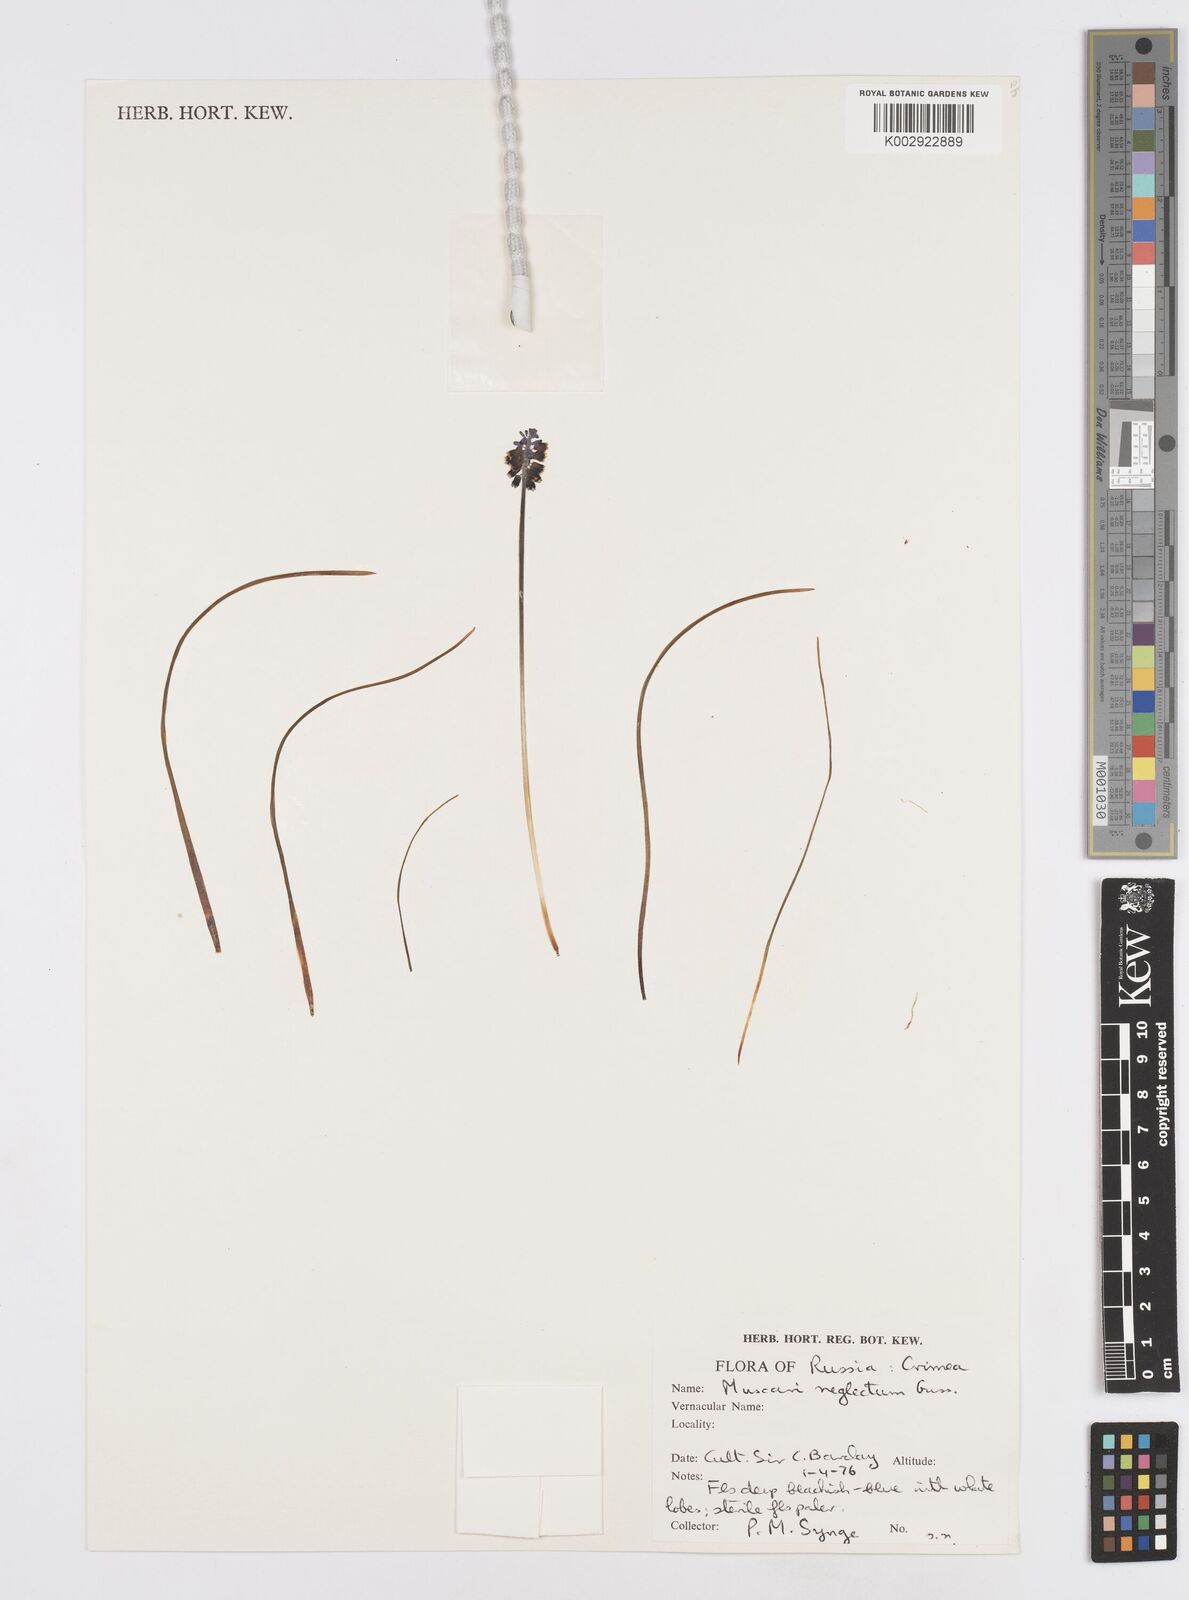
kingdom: Plantae
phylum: Tracheophyta
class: Liliopsida
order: Asparagales
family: Asparagaceae
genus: Muscari
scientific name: Muscari
